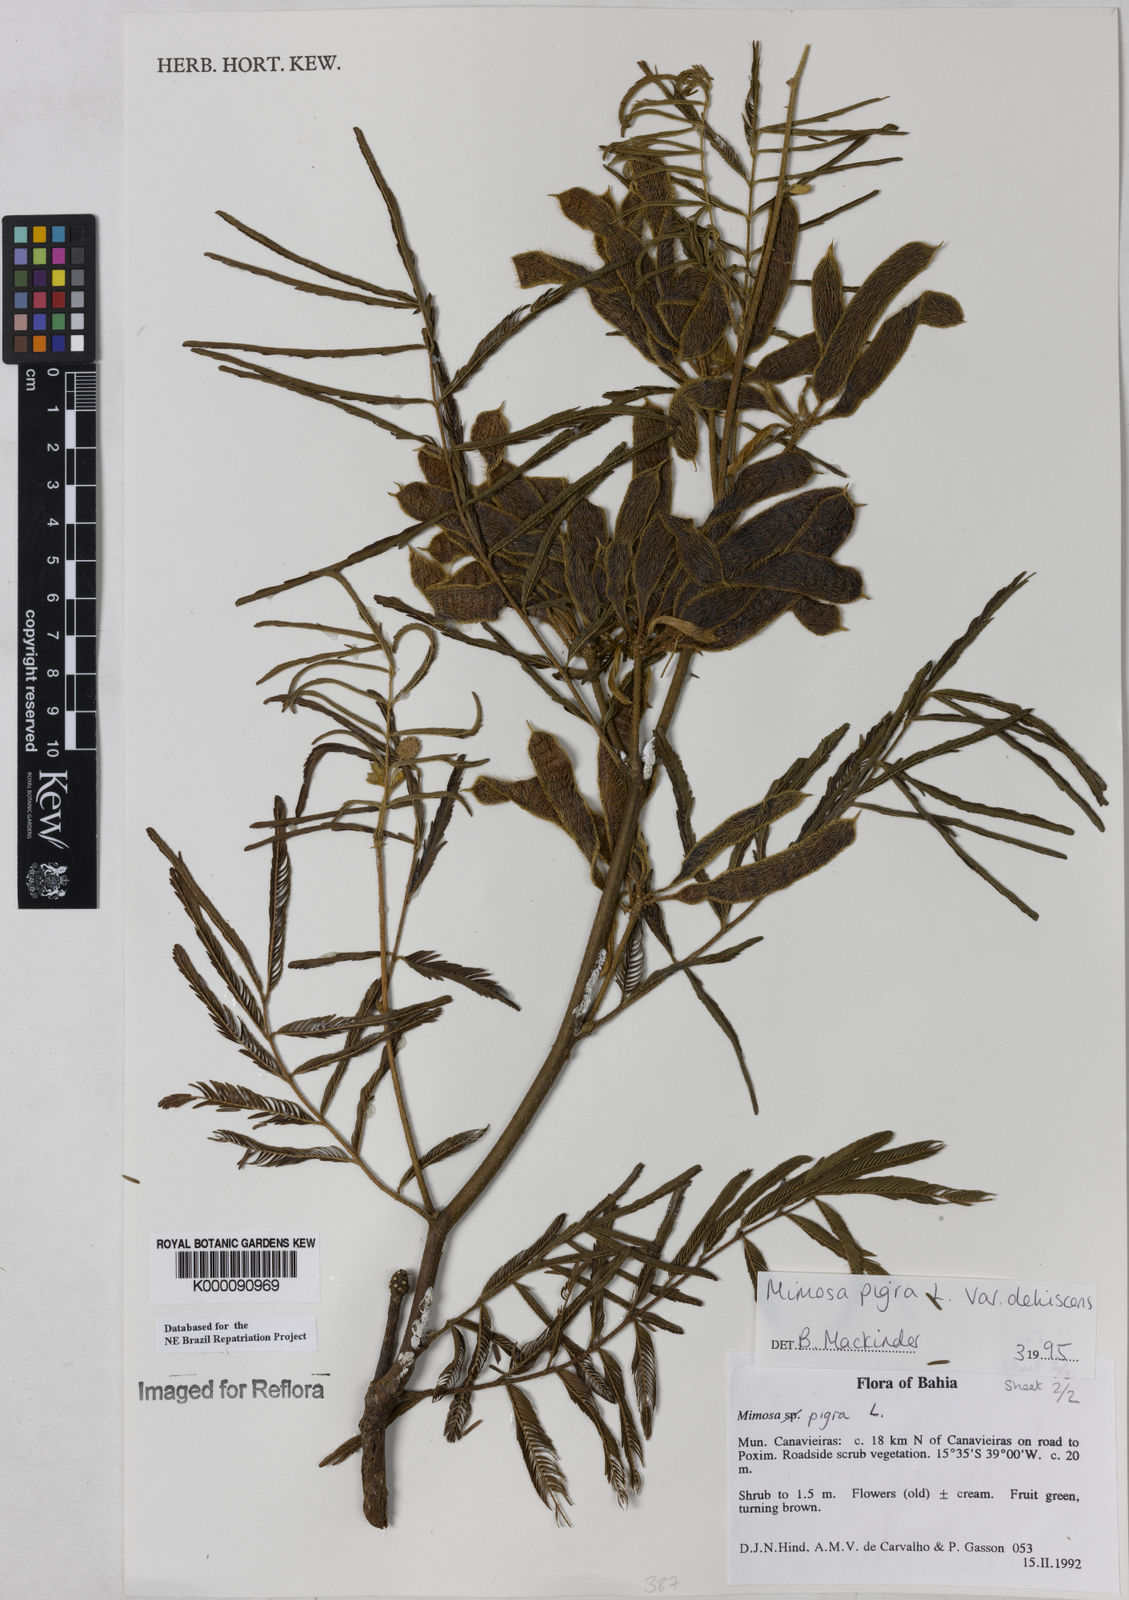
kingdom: Plantae
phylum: Tracheophyta
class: Magnoliopsida
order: Fabales
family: Fabaceae
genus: Mimosa
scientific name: Mimosa pigra
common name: Black mimosa
